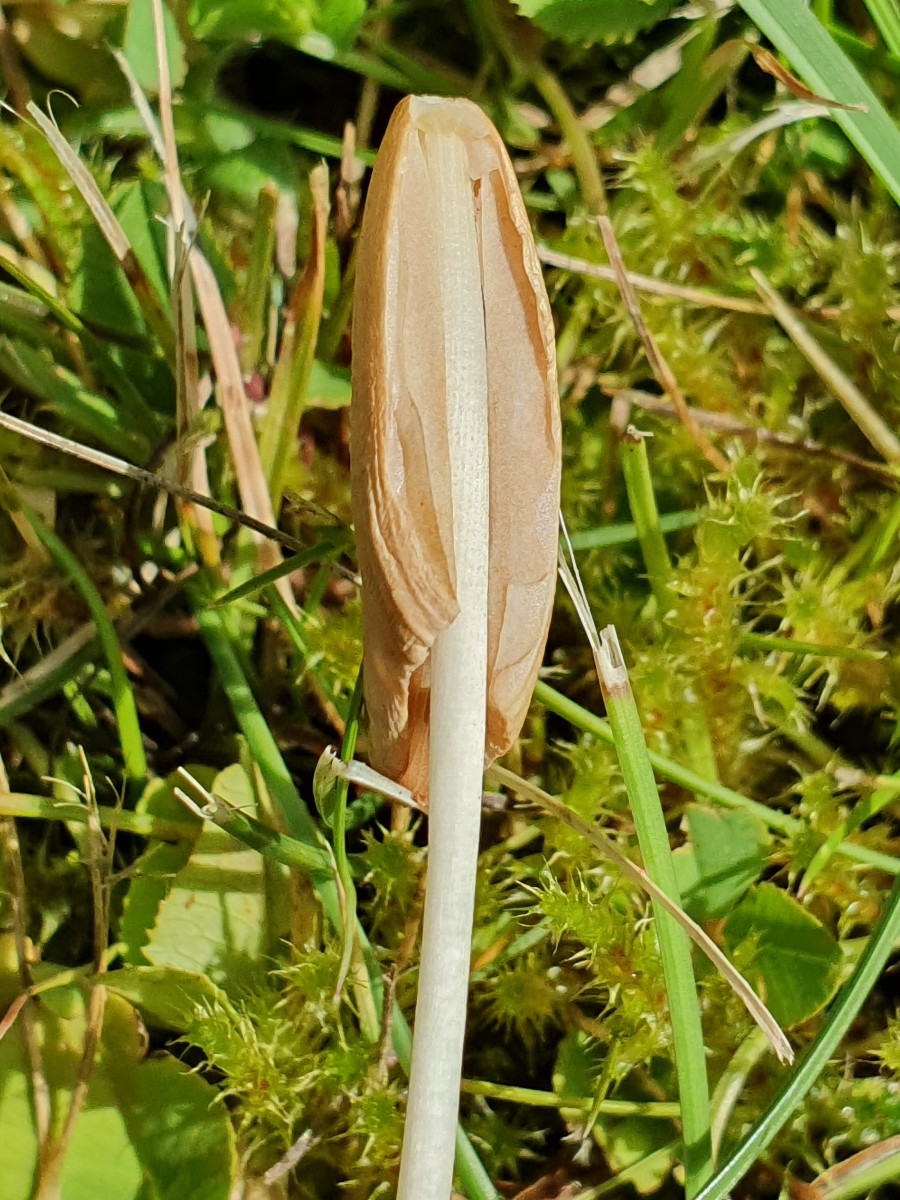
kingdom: Fungi
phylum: Basidiomycota
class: Agaricomycetes
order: Agaricales
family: Bolbitiaceae
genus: Conocybe
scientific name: Conocybe apala
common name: mælkehvid keglehat
